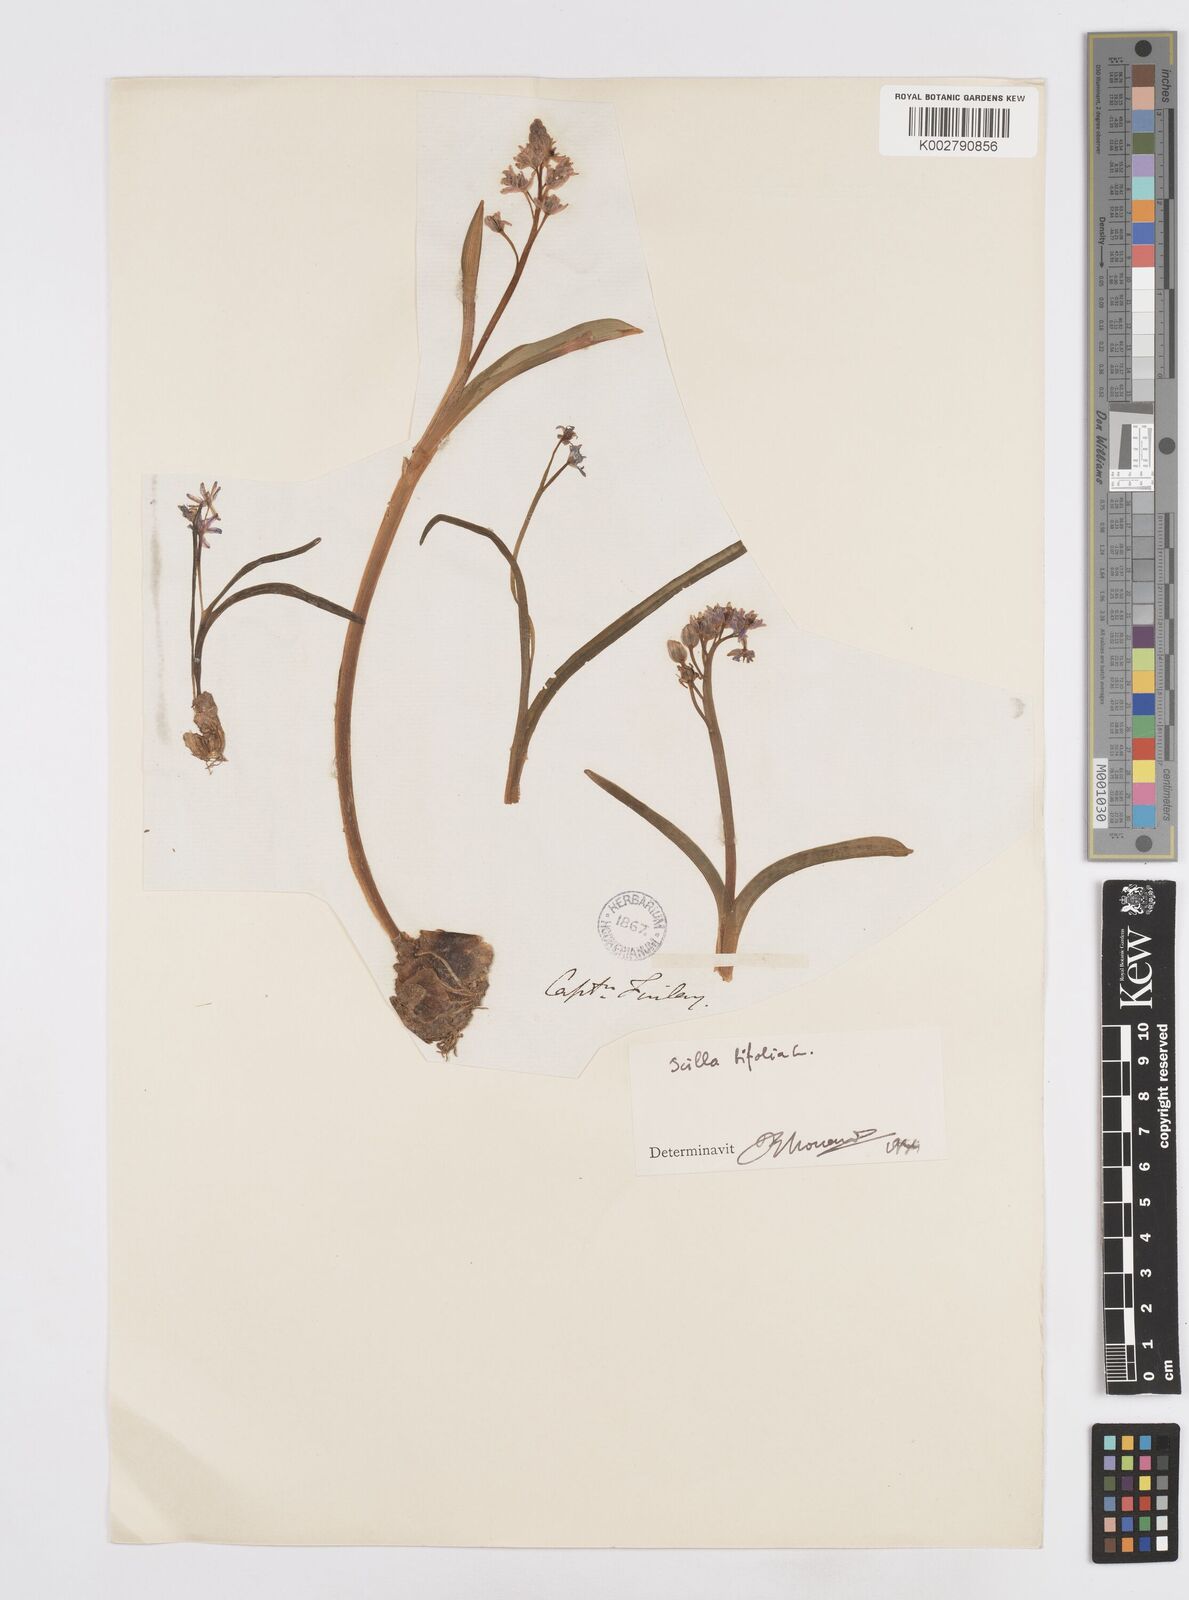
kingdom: Plantae
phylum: Tracheophyta
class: Liliopsida
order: Asparagales
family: Asparagaceae
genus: Scilla
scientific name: Scilla bifolia
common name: Alpine squill
